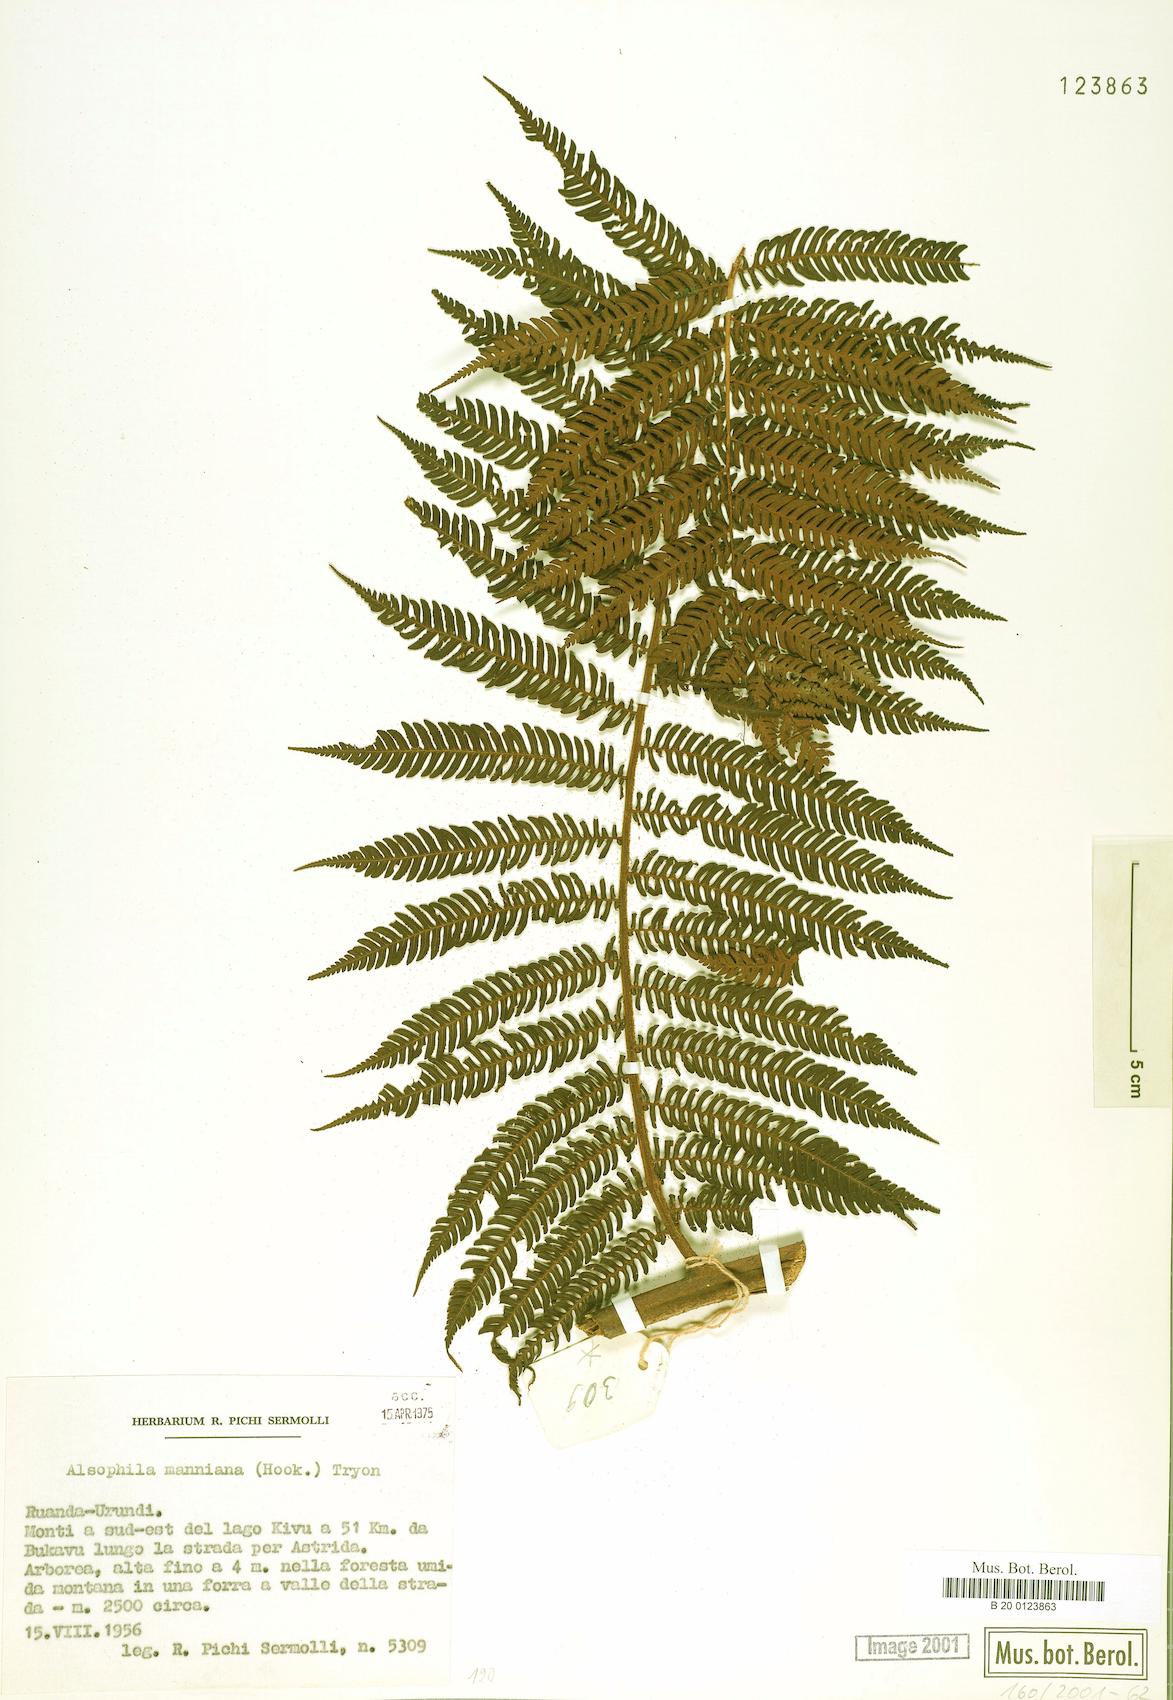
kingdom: Plantae
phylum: Tracheophyta
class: Polypodiopsida
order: Cyatheales
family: Cyatheaceae
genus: Alsophila
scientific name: Alsophila manniana
